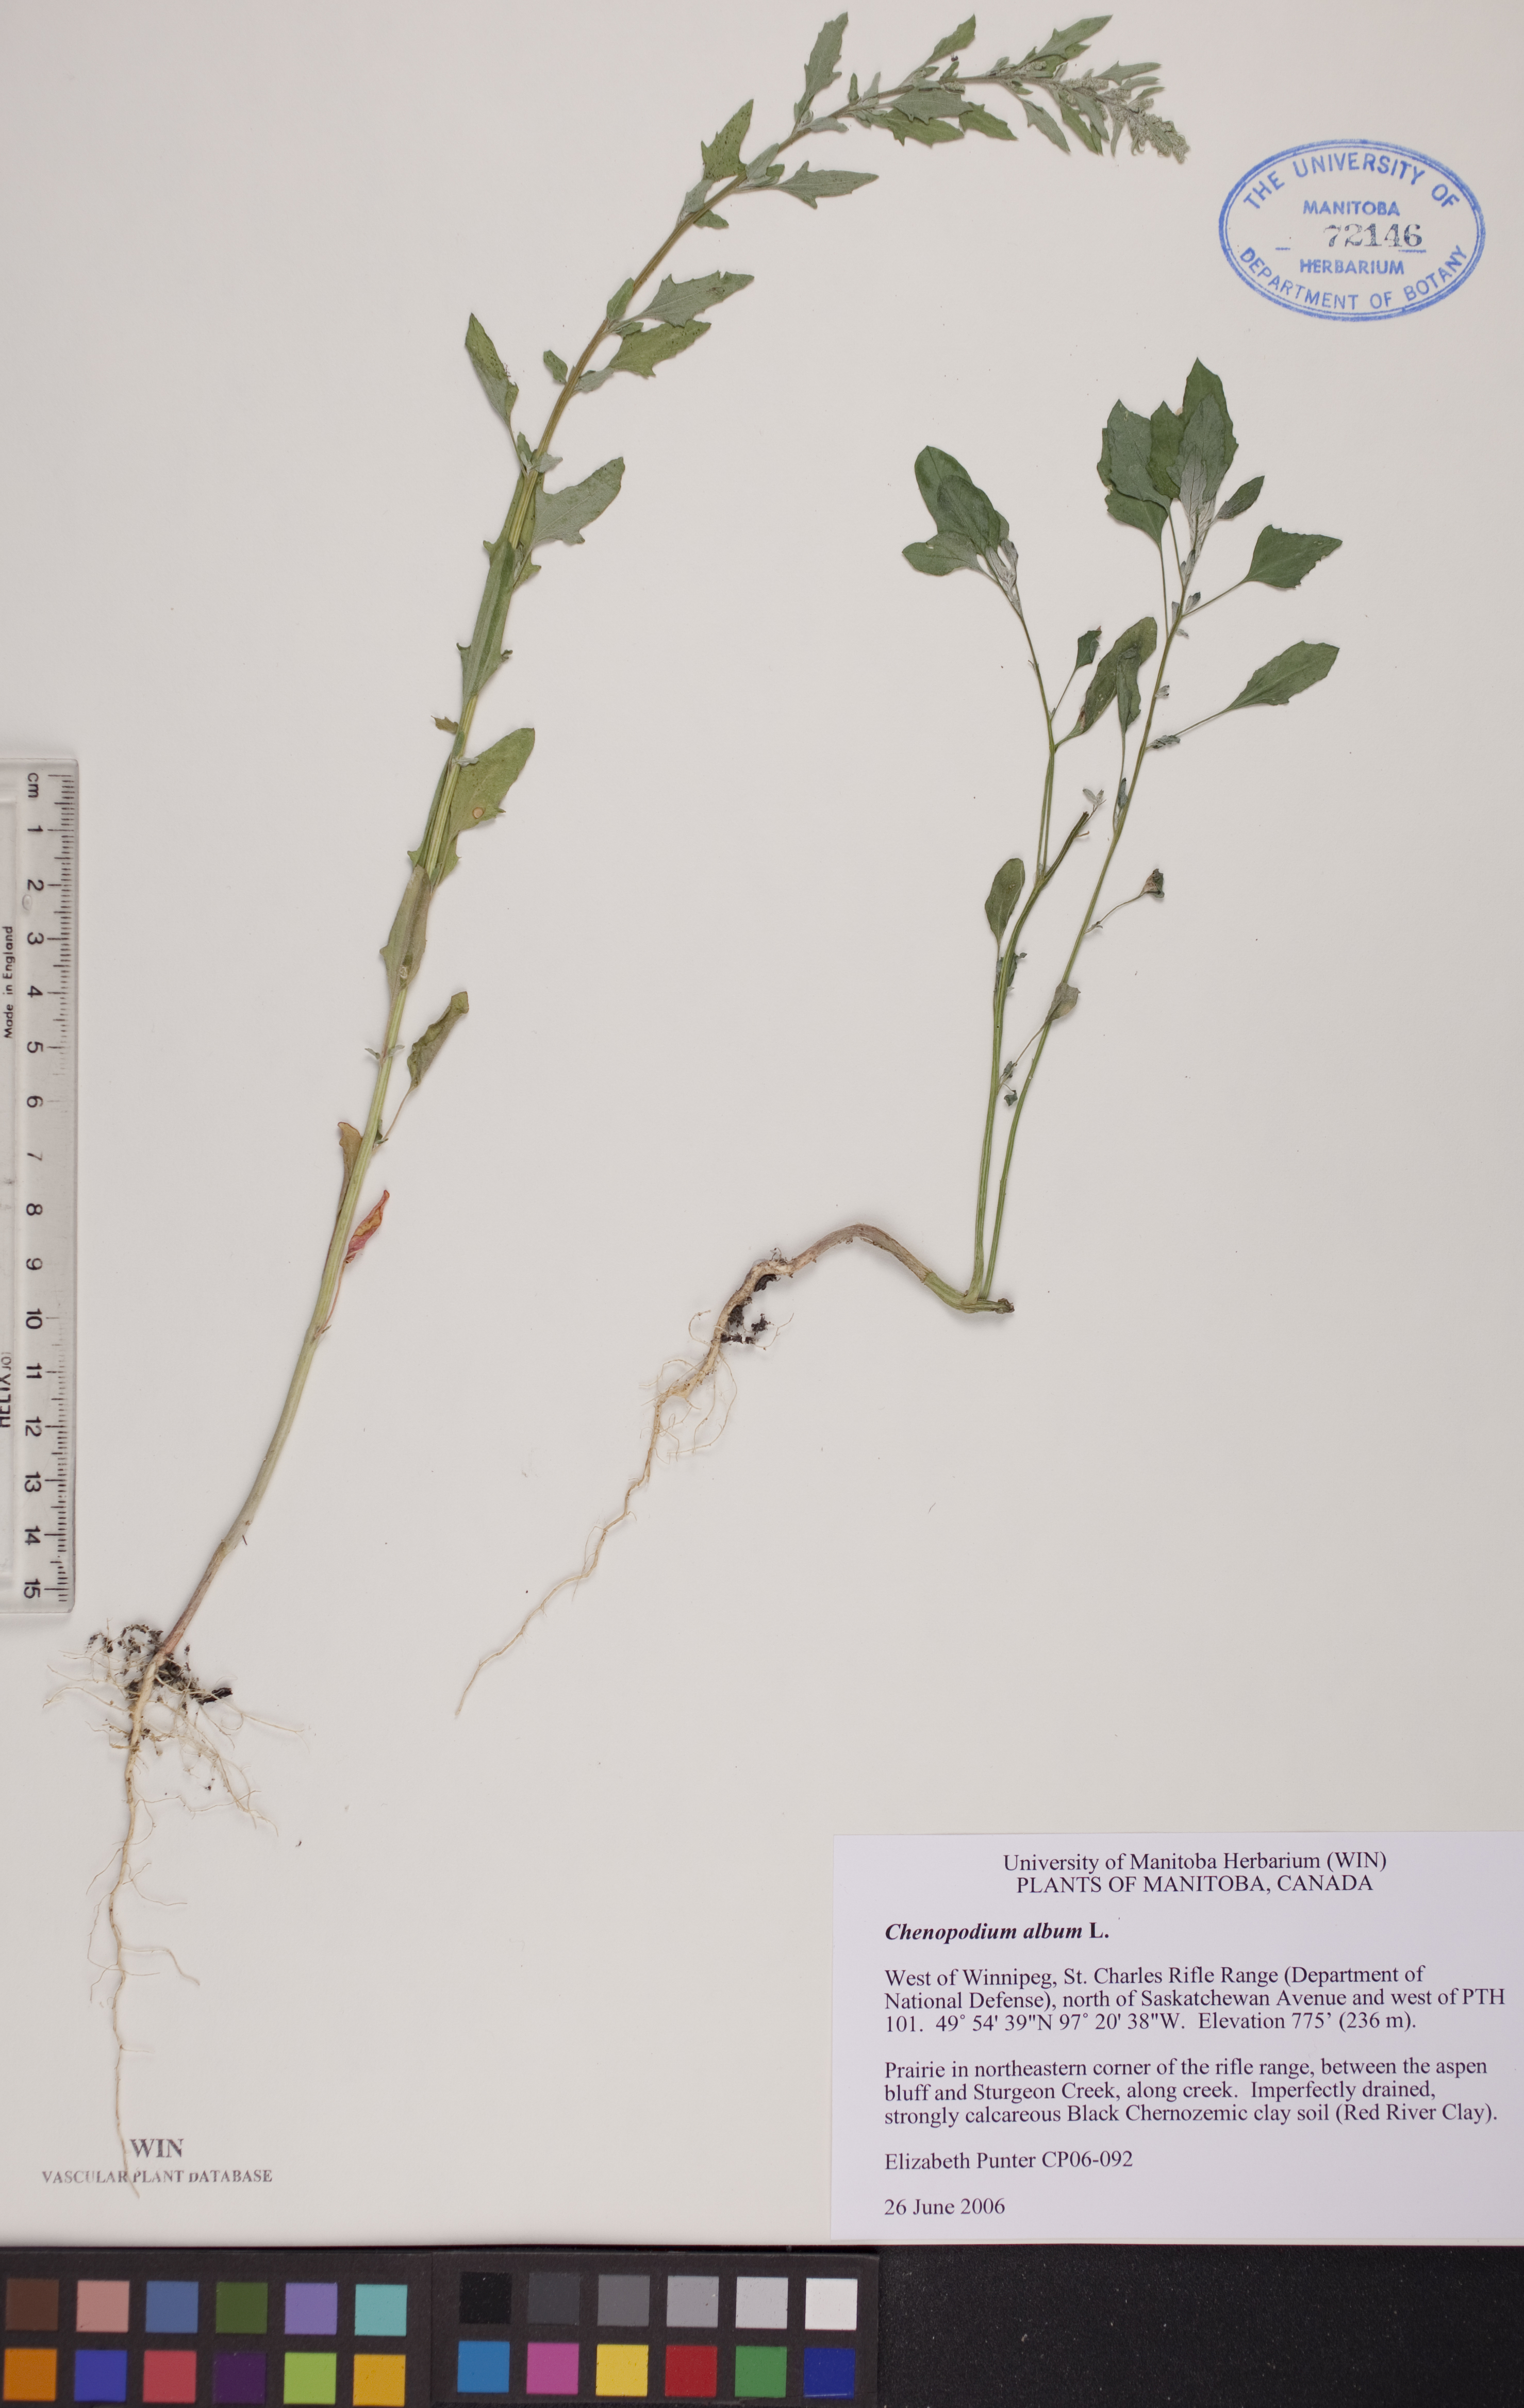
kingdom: Plantae
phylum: Tracheophyta
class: Magnoliopsida
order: Caryophyllales
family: Amaranthaceae
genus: Chenopodium
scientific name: Chenopodium album
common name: Fat-hen
